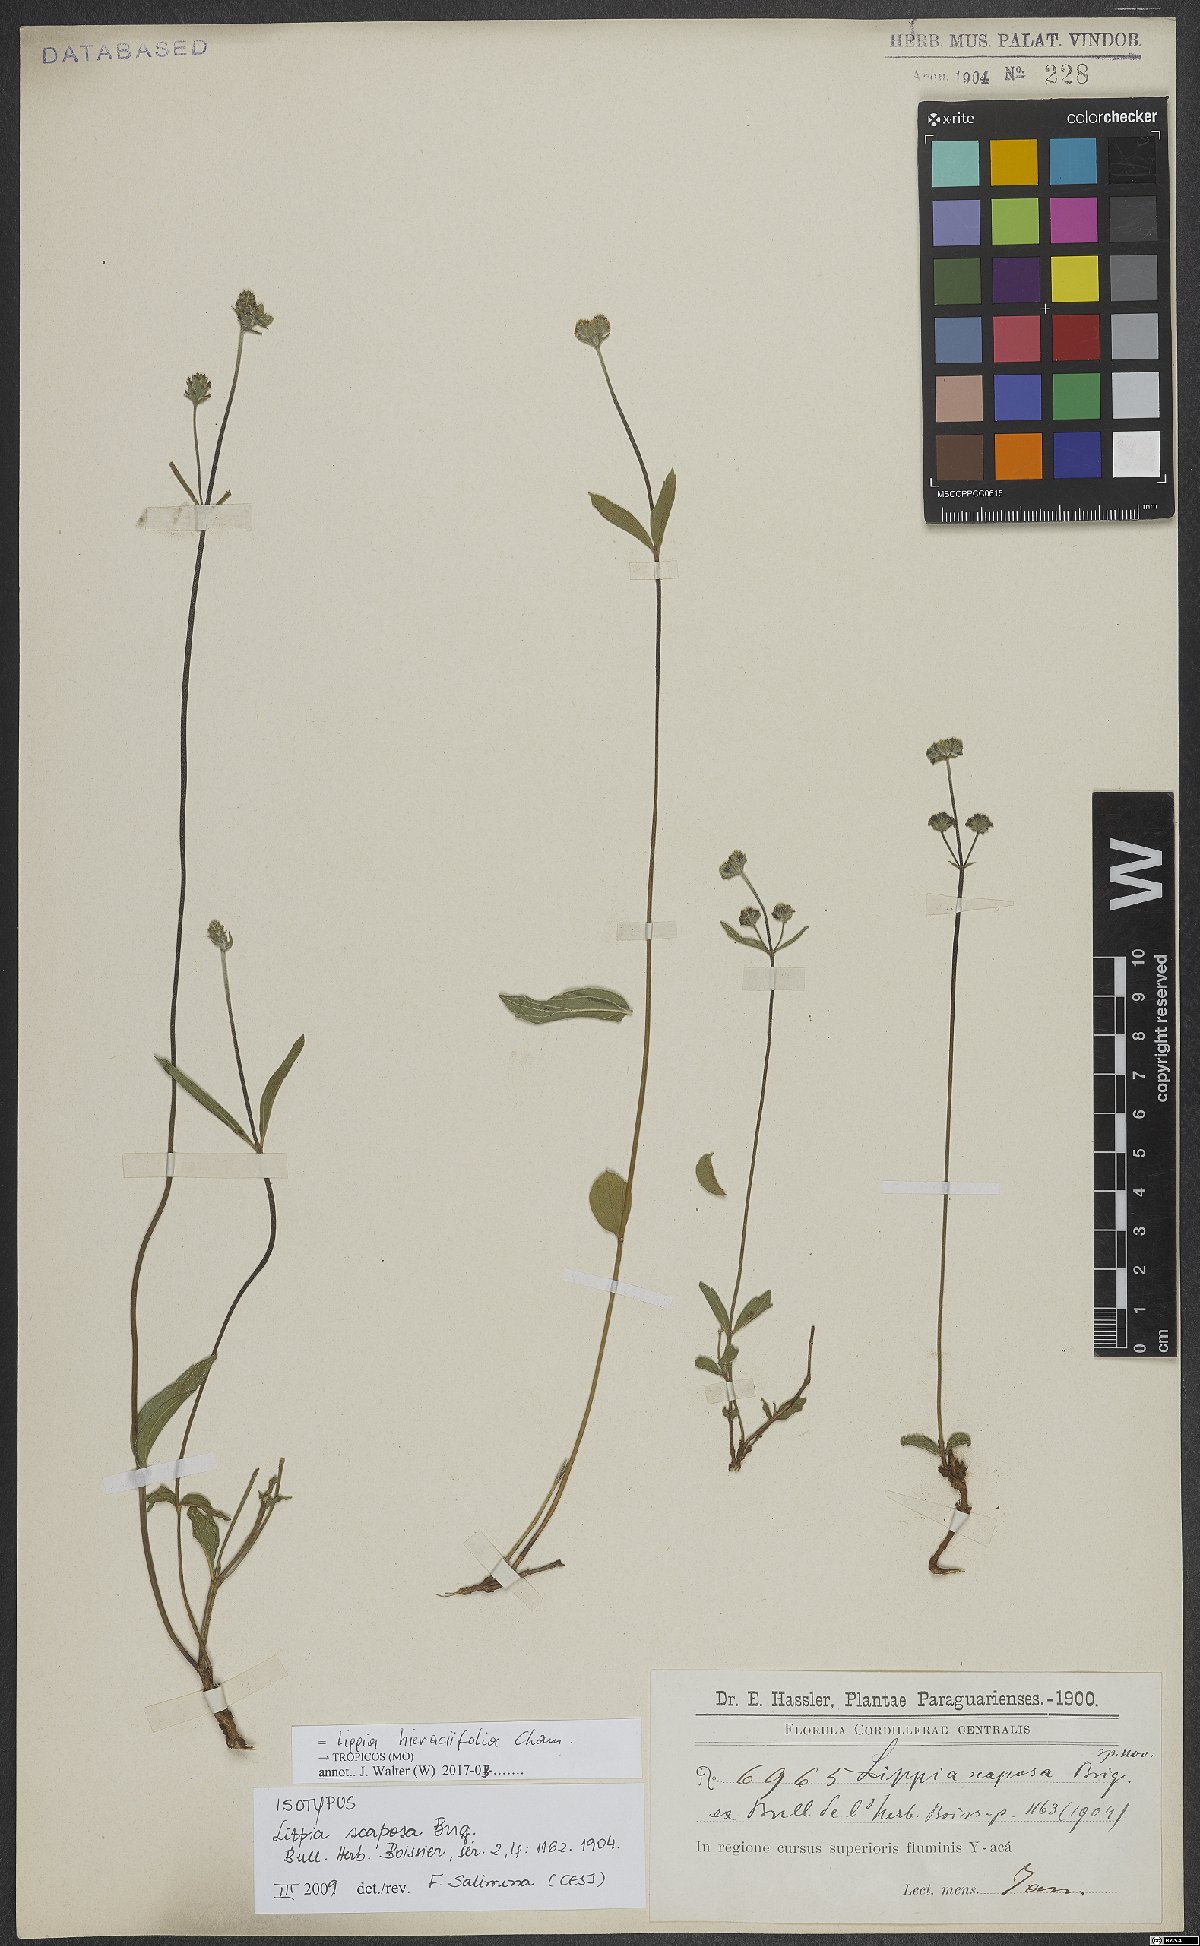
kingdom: Plantae
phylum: Tracheophyta
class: Magnoliopsida
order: Lamiales
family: Verbenaceae
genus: Lippia
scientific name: Lippia hieraciifolia
